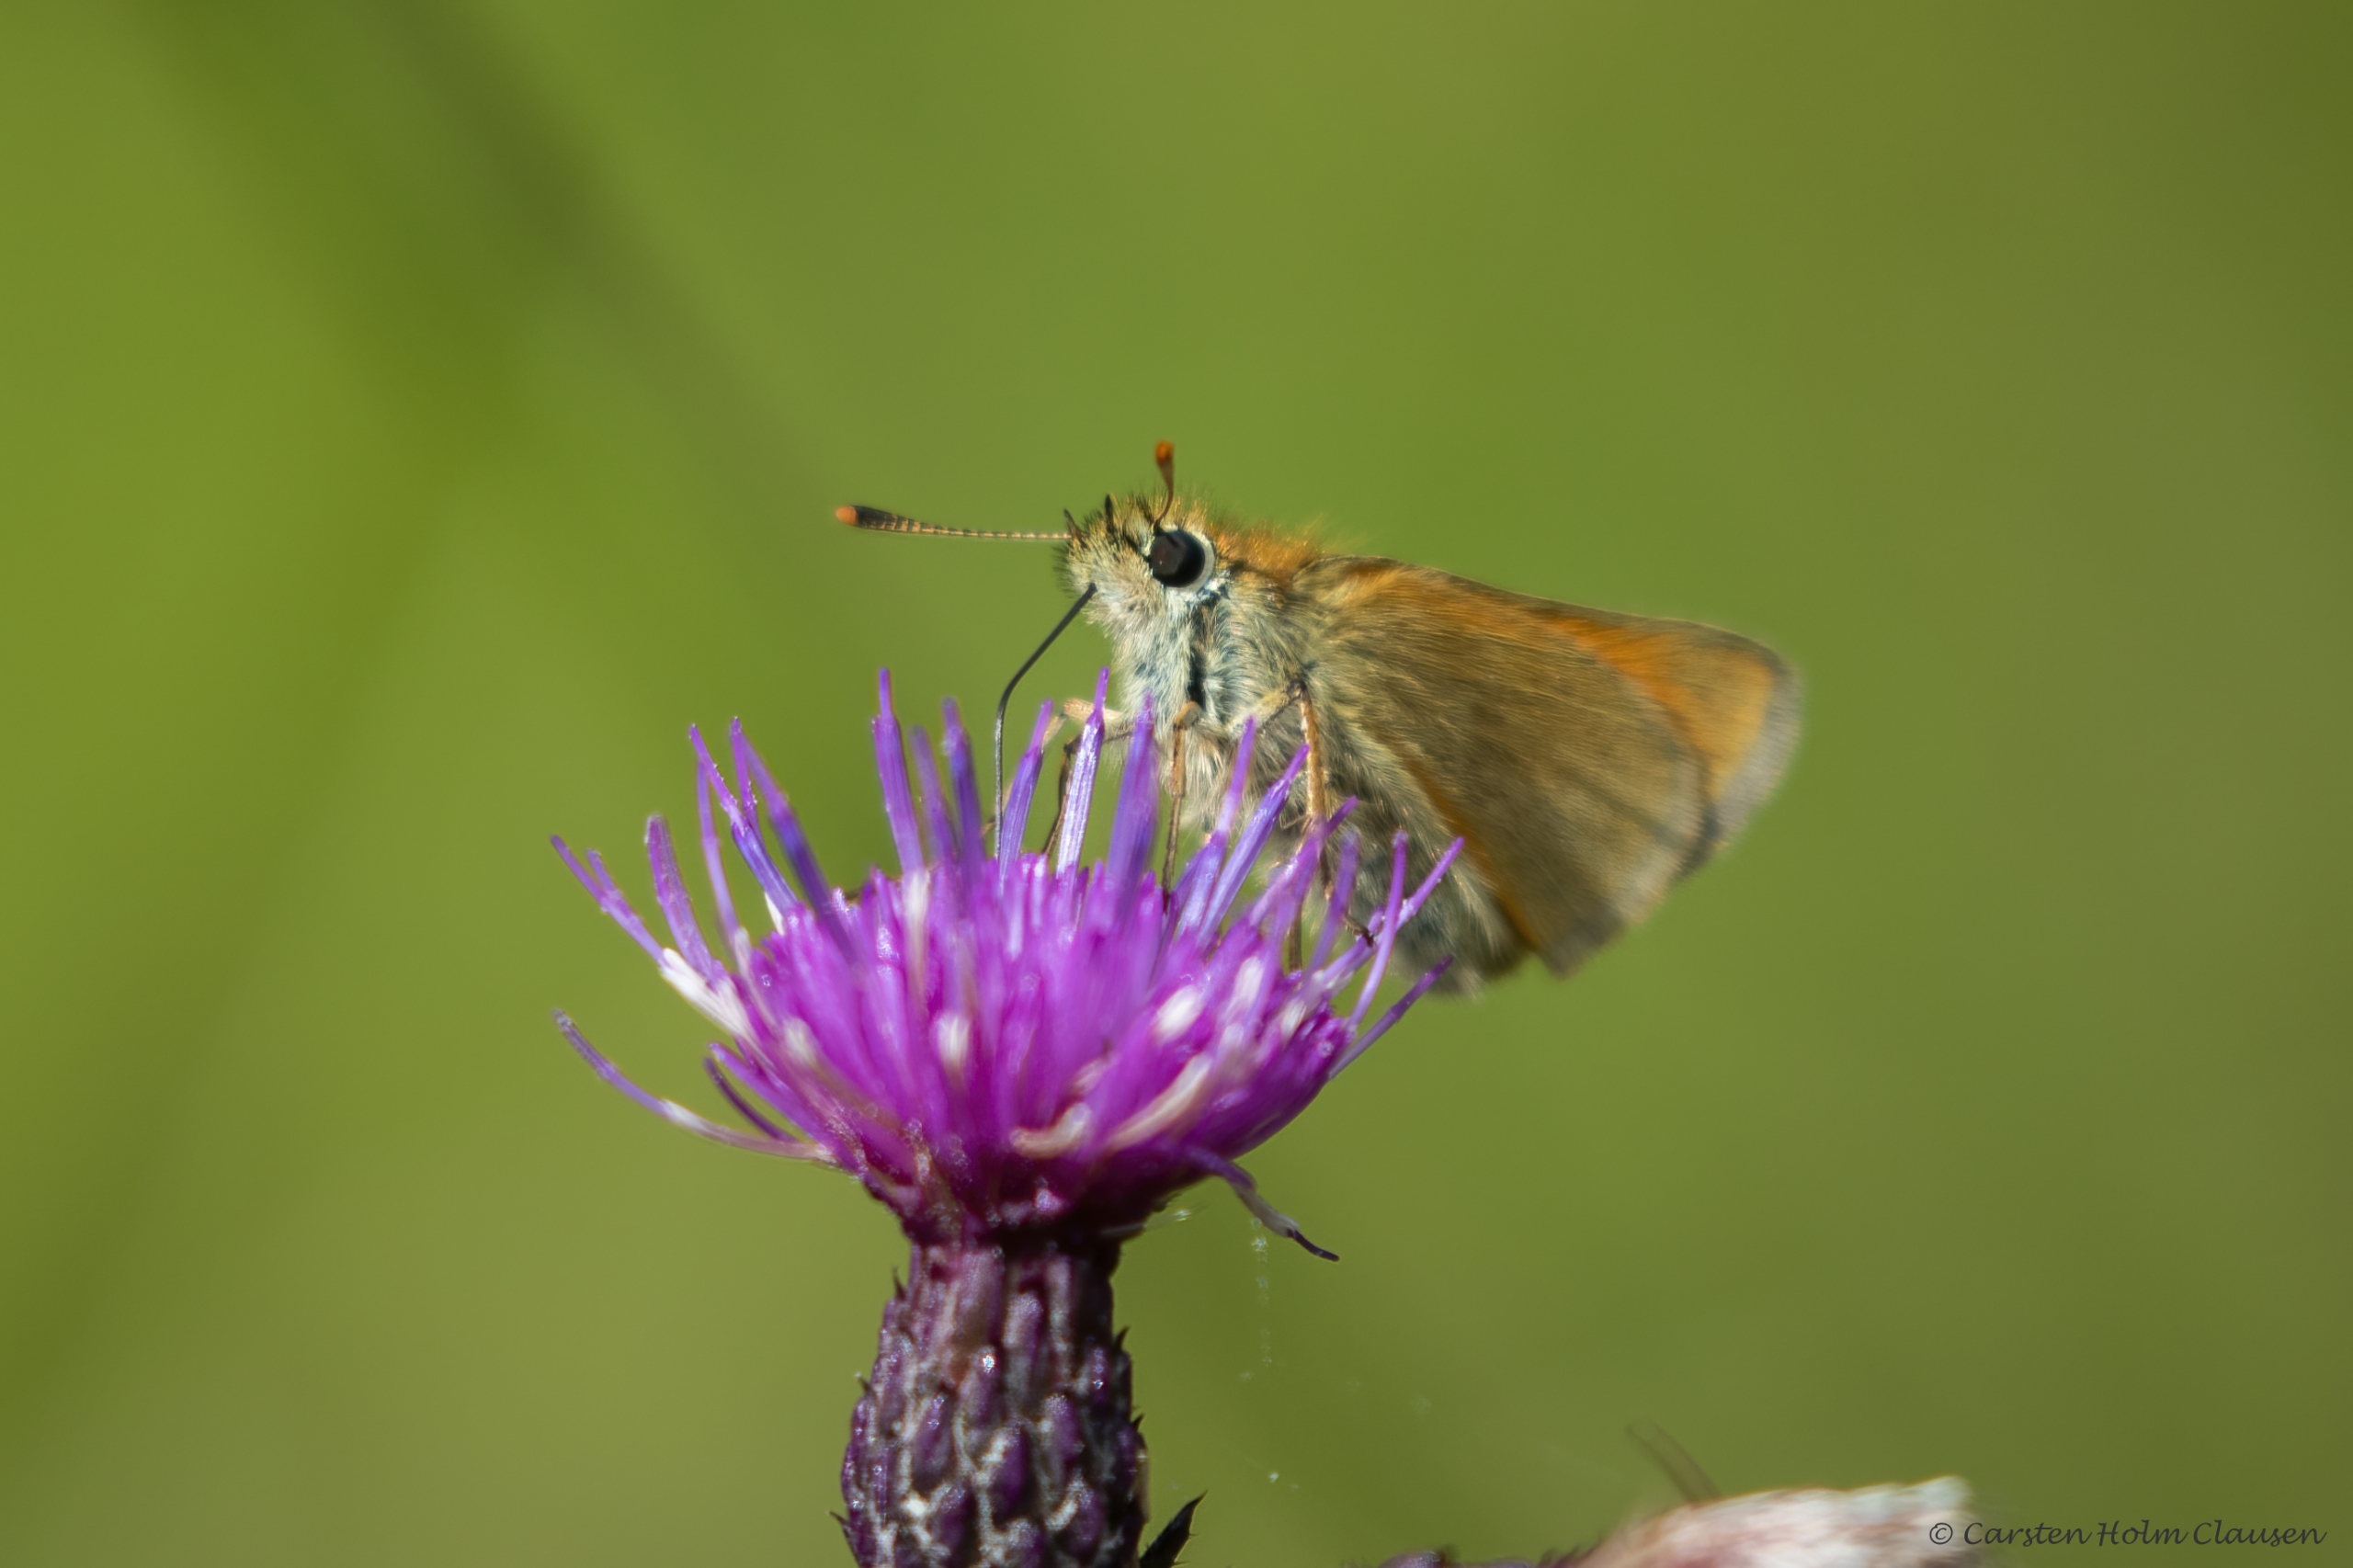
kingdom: Animalia
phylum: Arthropoda
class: Insecta
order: Lepidoptera
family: Hesperiidae
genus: Thymelicus
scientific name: Thymelicus sylvestris
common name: Skråstregbredpande
